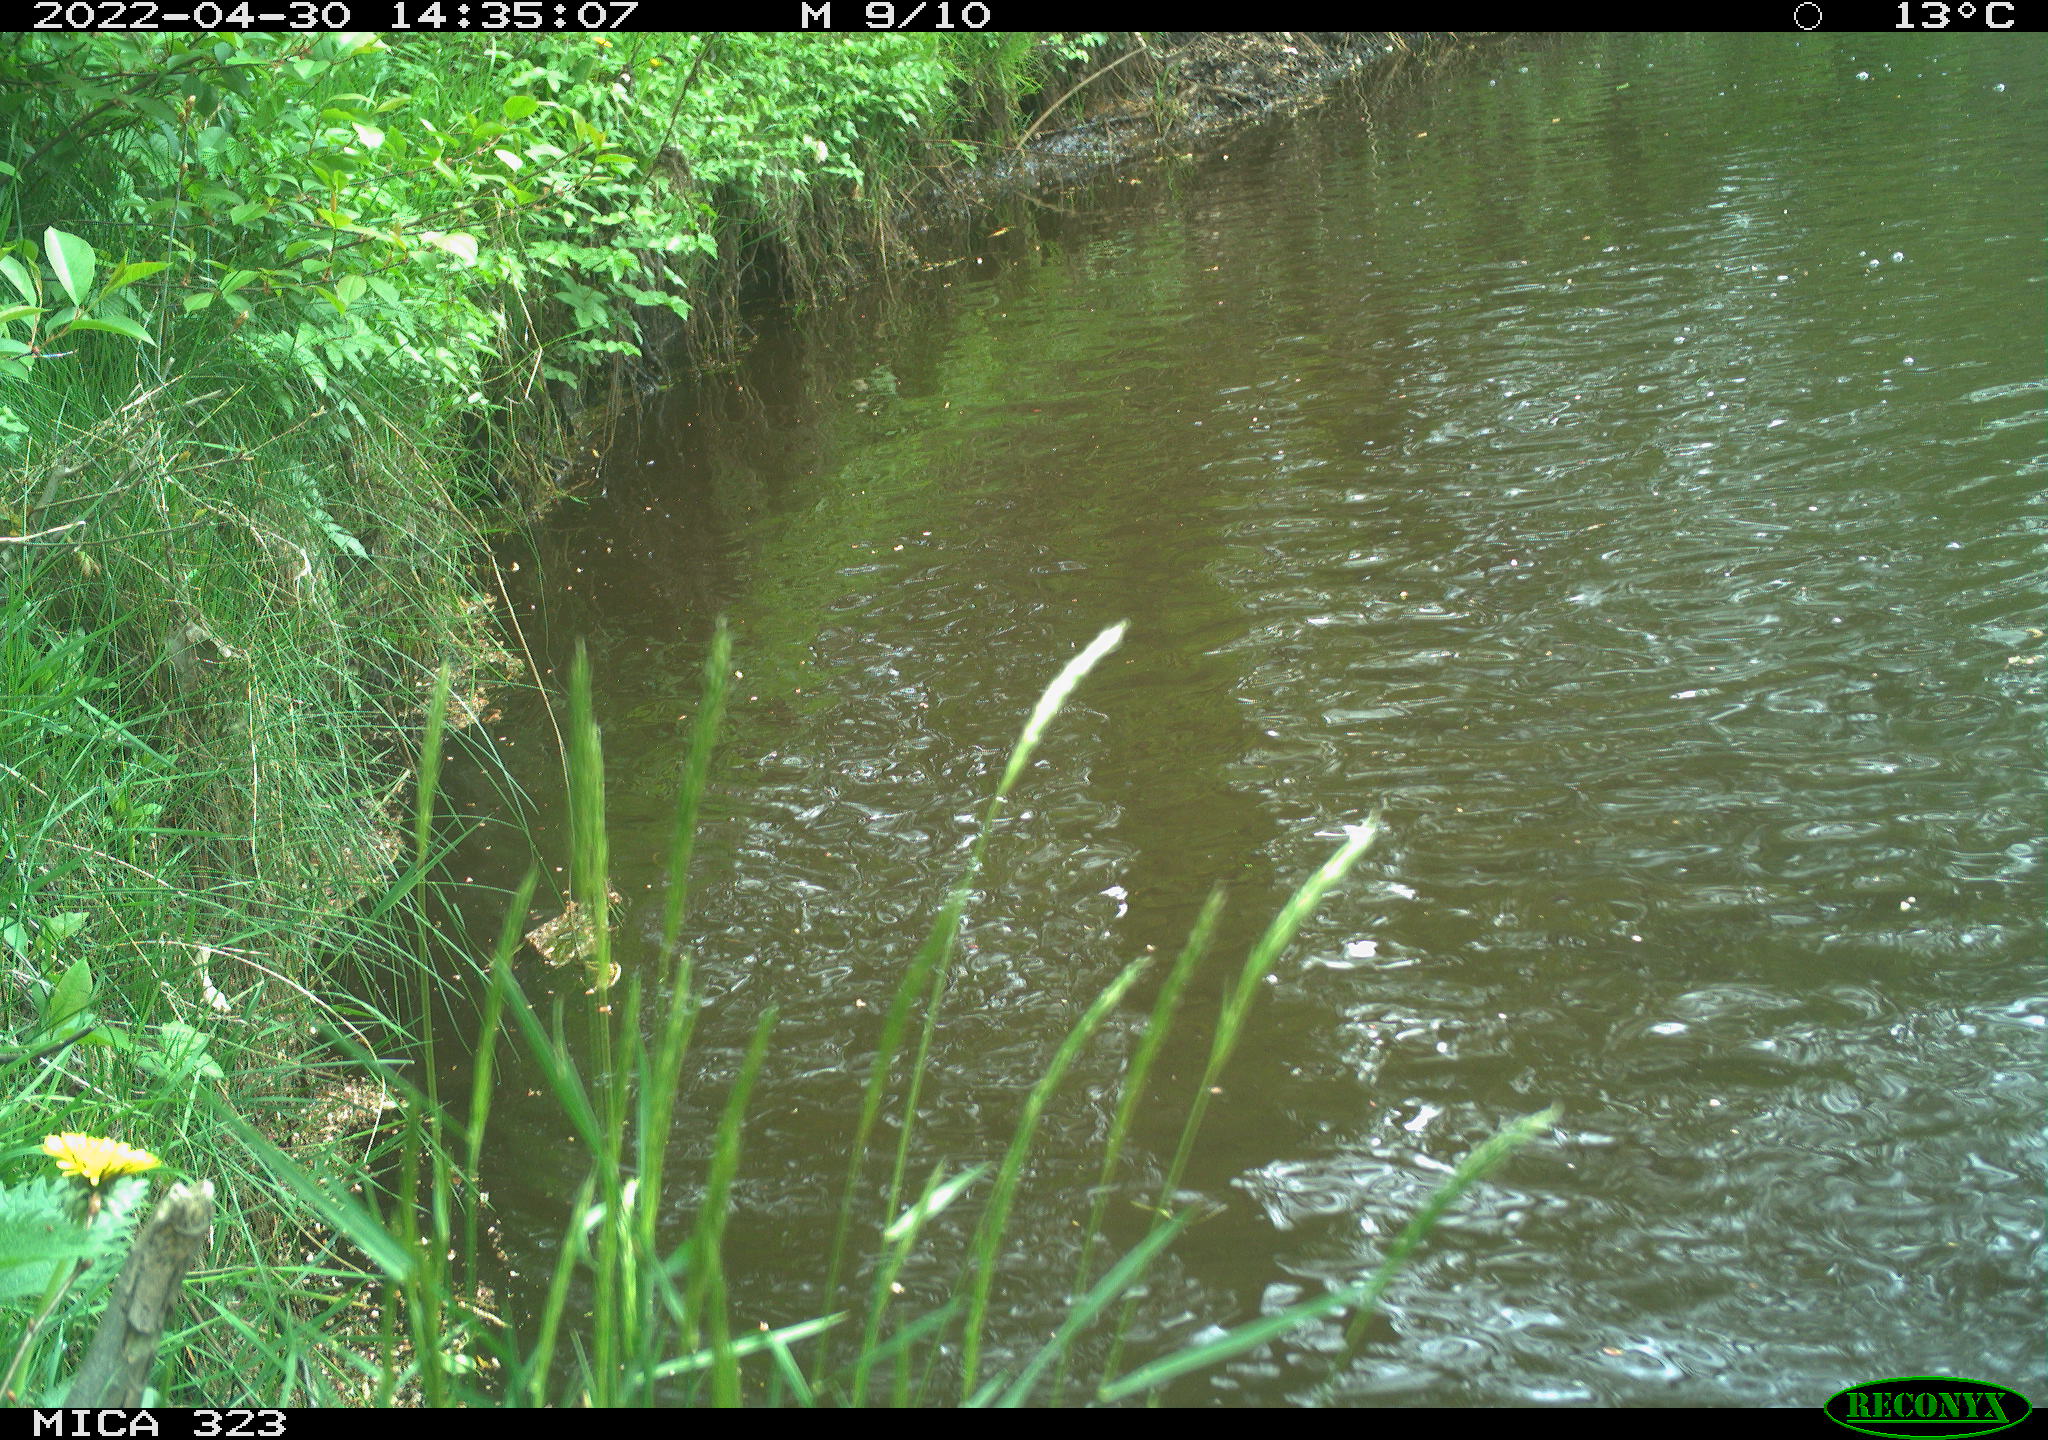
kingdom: Animalia
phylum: Chordata
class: Aves
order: Anseriformes
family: Anatidae
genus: Anas
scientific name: Anas
